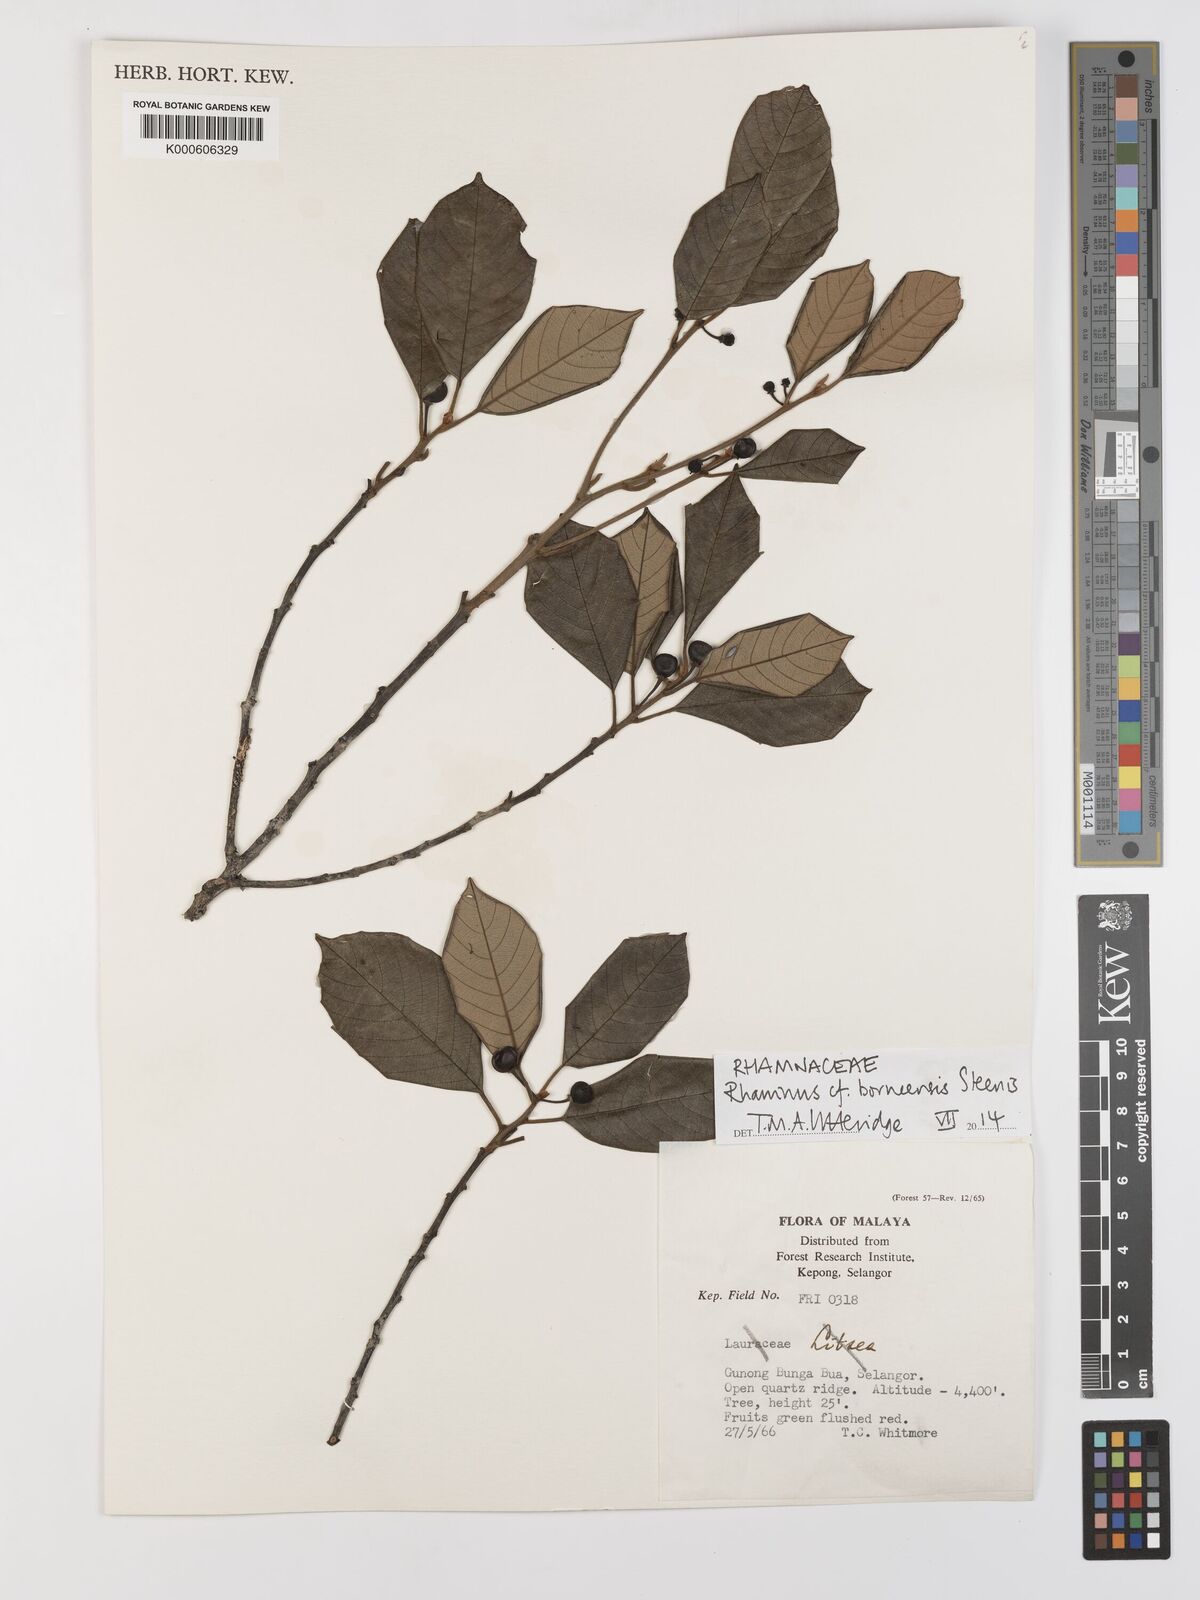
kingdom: Plantae
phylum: Tracheophyta
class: Magnoliopsida
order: Rosales
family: Rhamnaceae
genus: Frangula
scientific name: Frangula borneensis
